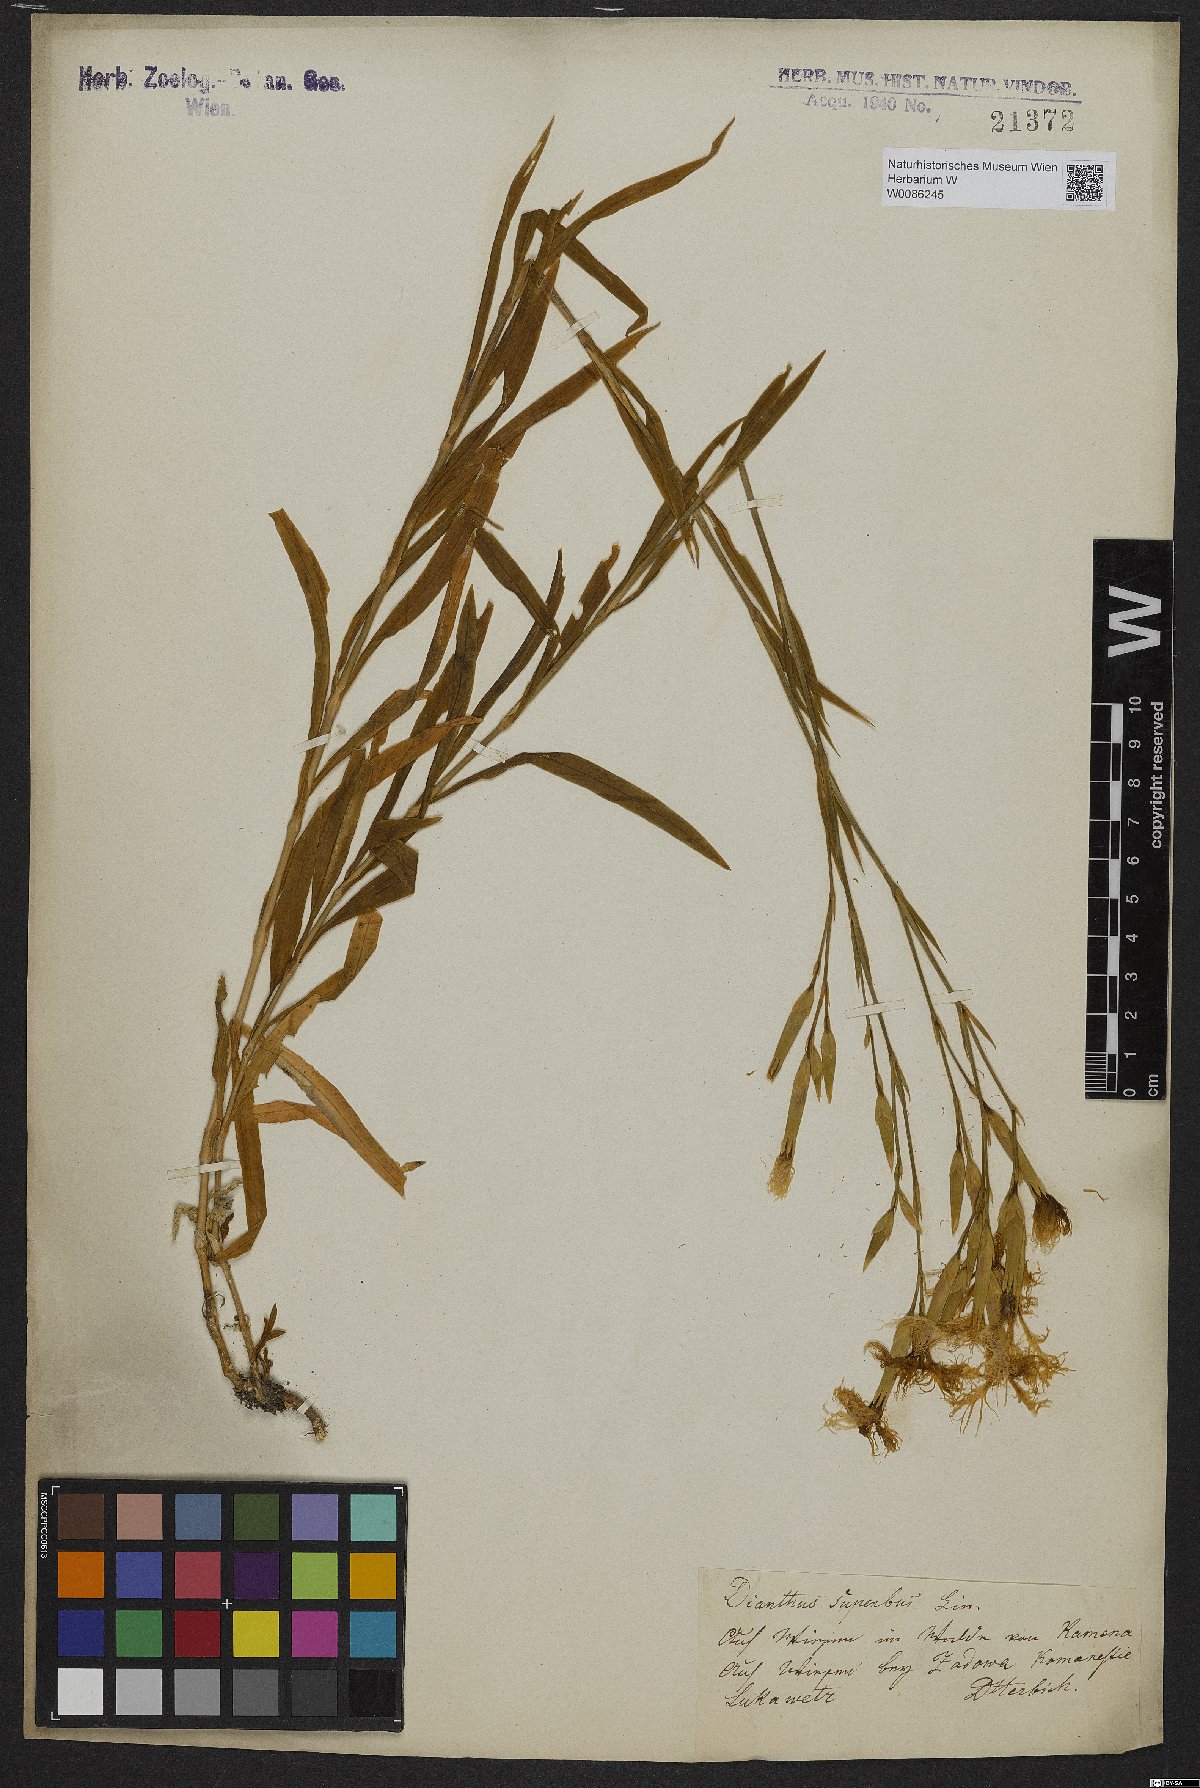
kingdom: Plantae
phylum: Tracheophyta
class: Magnoliopsida
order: Caryophyllales
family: Caryophyllaceae
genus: Dianthus
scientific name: Dianthus superbus
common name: Fringed pink
